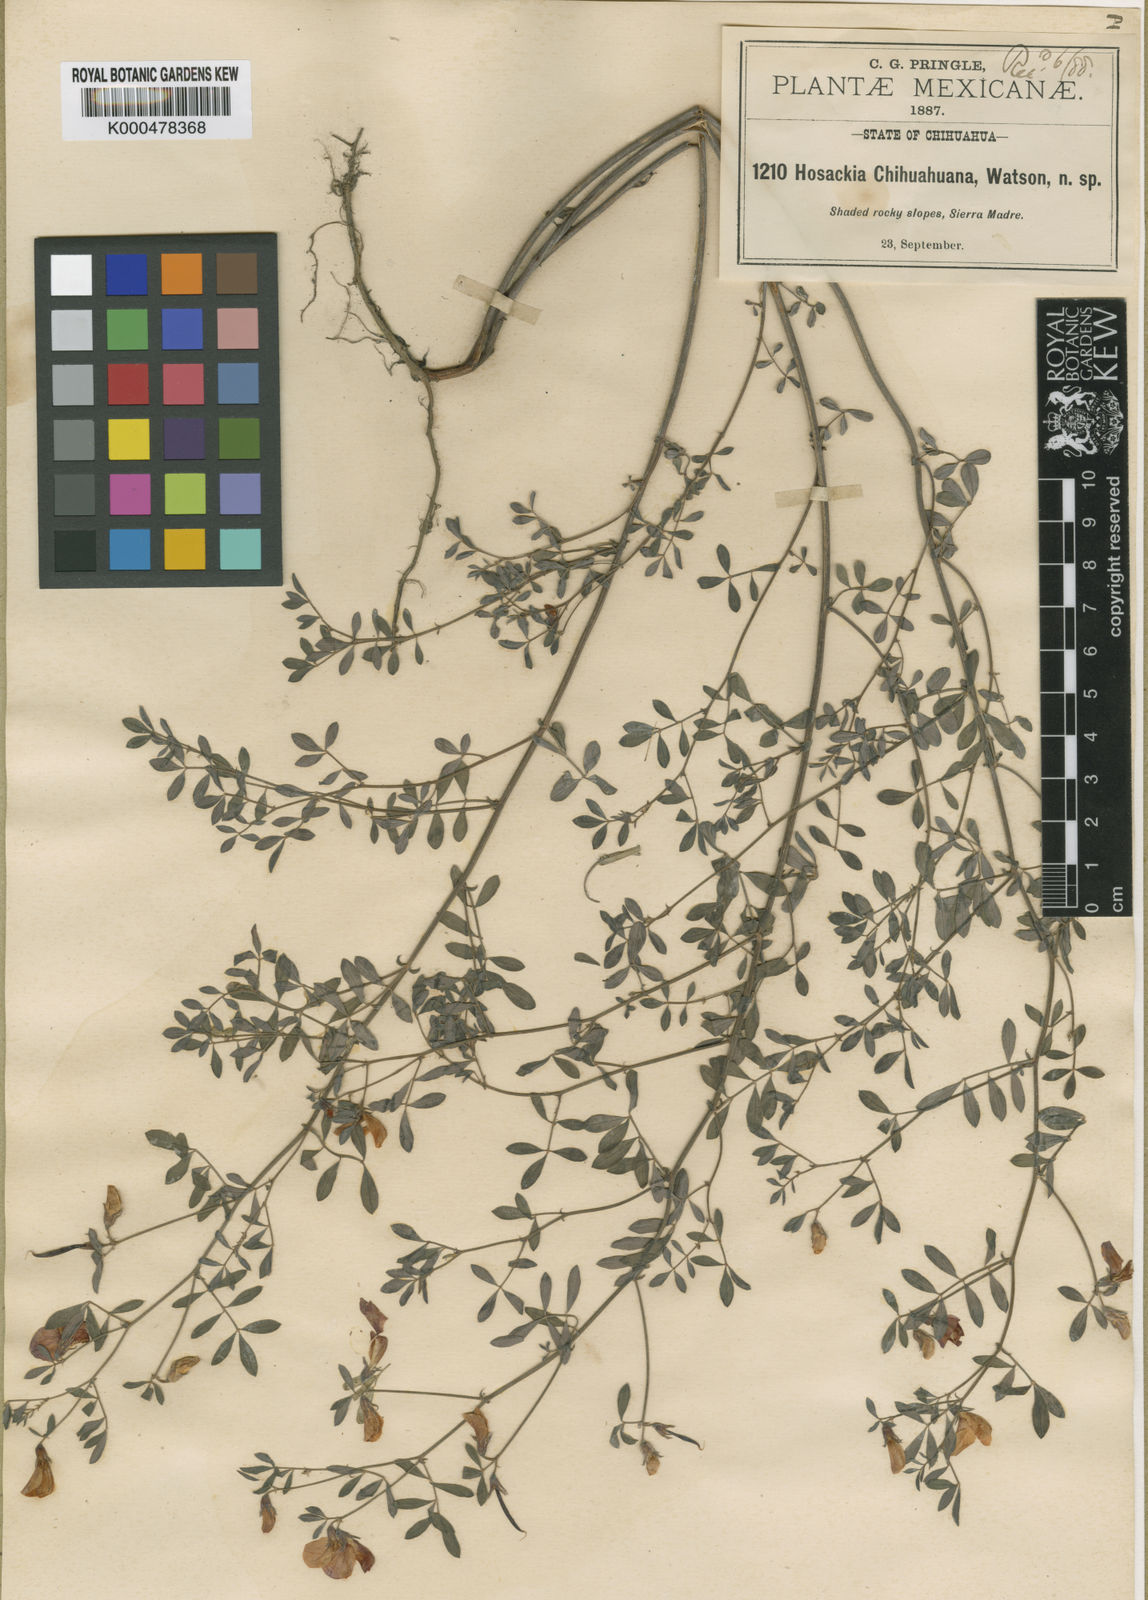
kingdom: Plantae
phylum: Tracheophyta
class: Magnoliopsida
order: Fabales
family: Fabaceae
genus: Hosackia
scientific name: Hosackia repens
